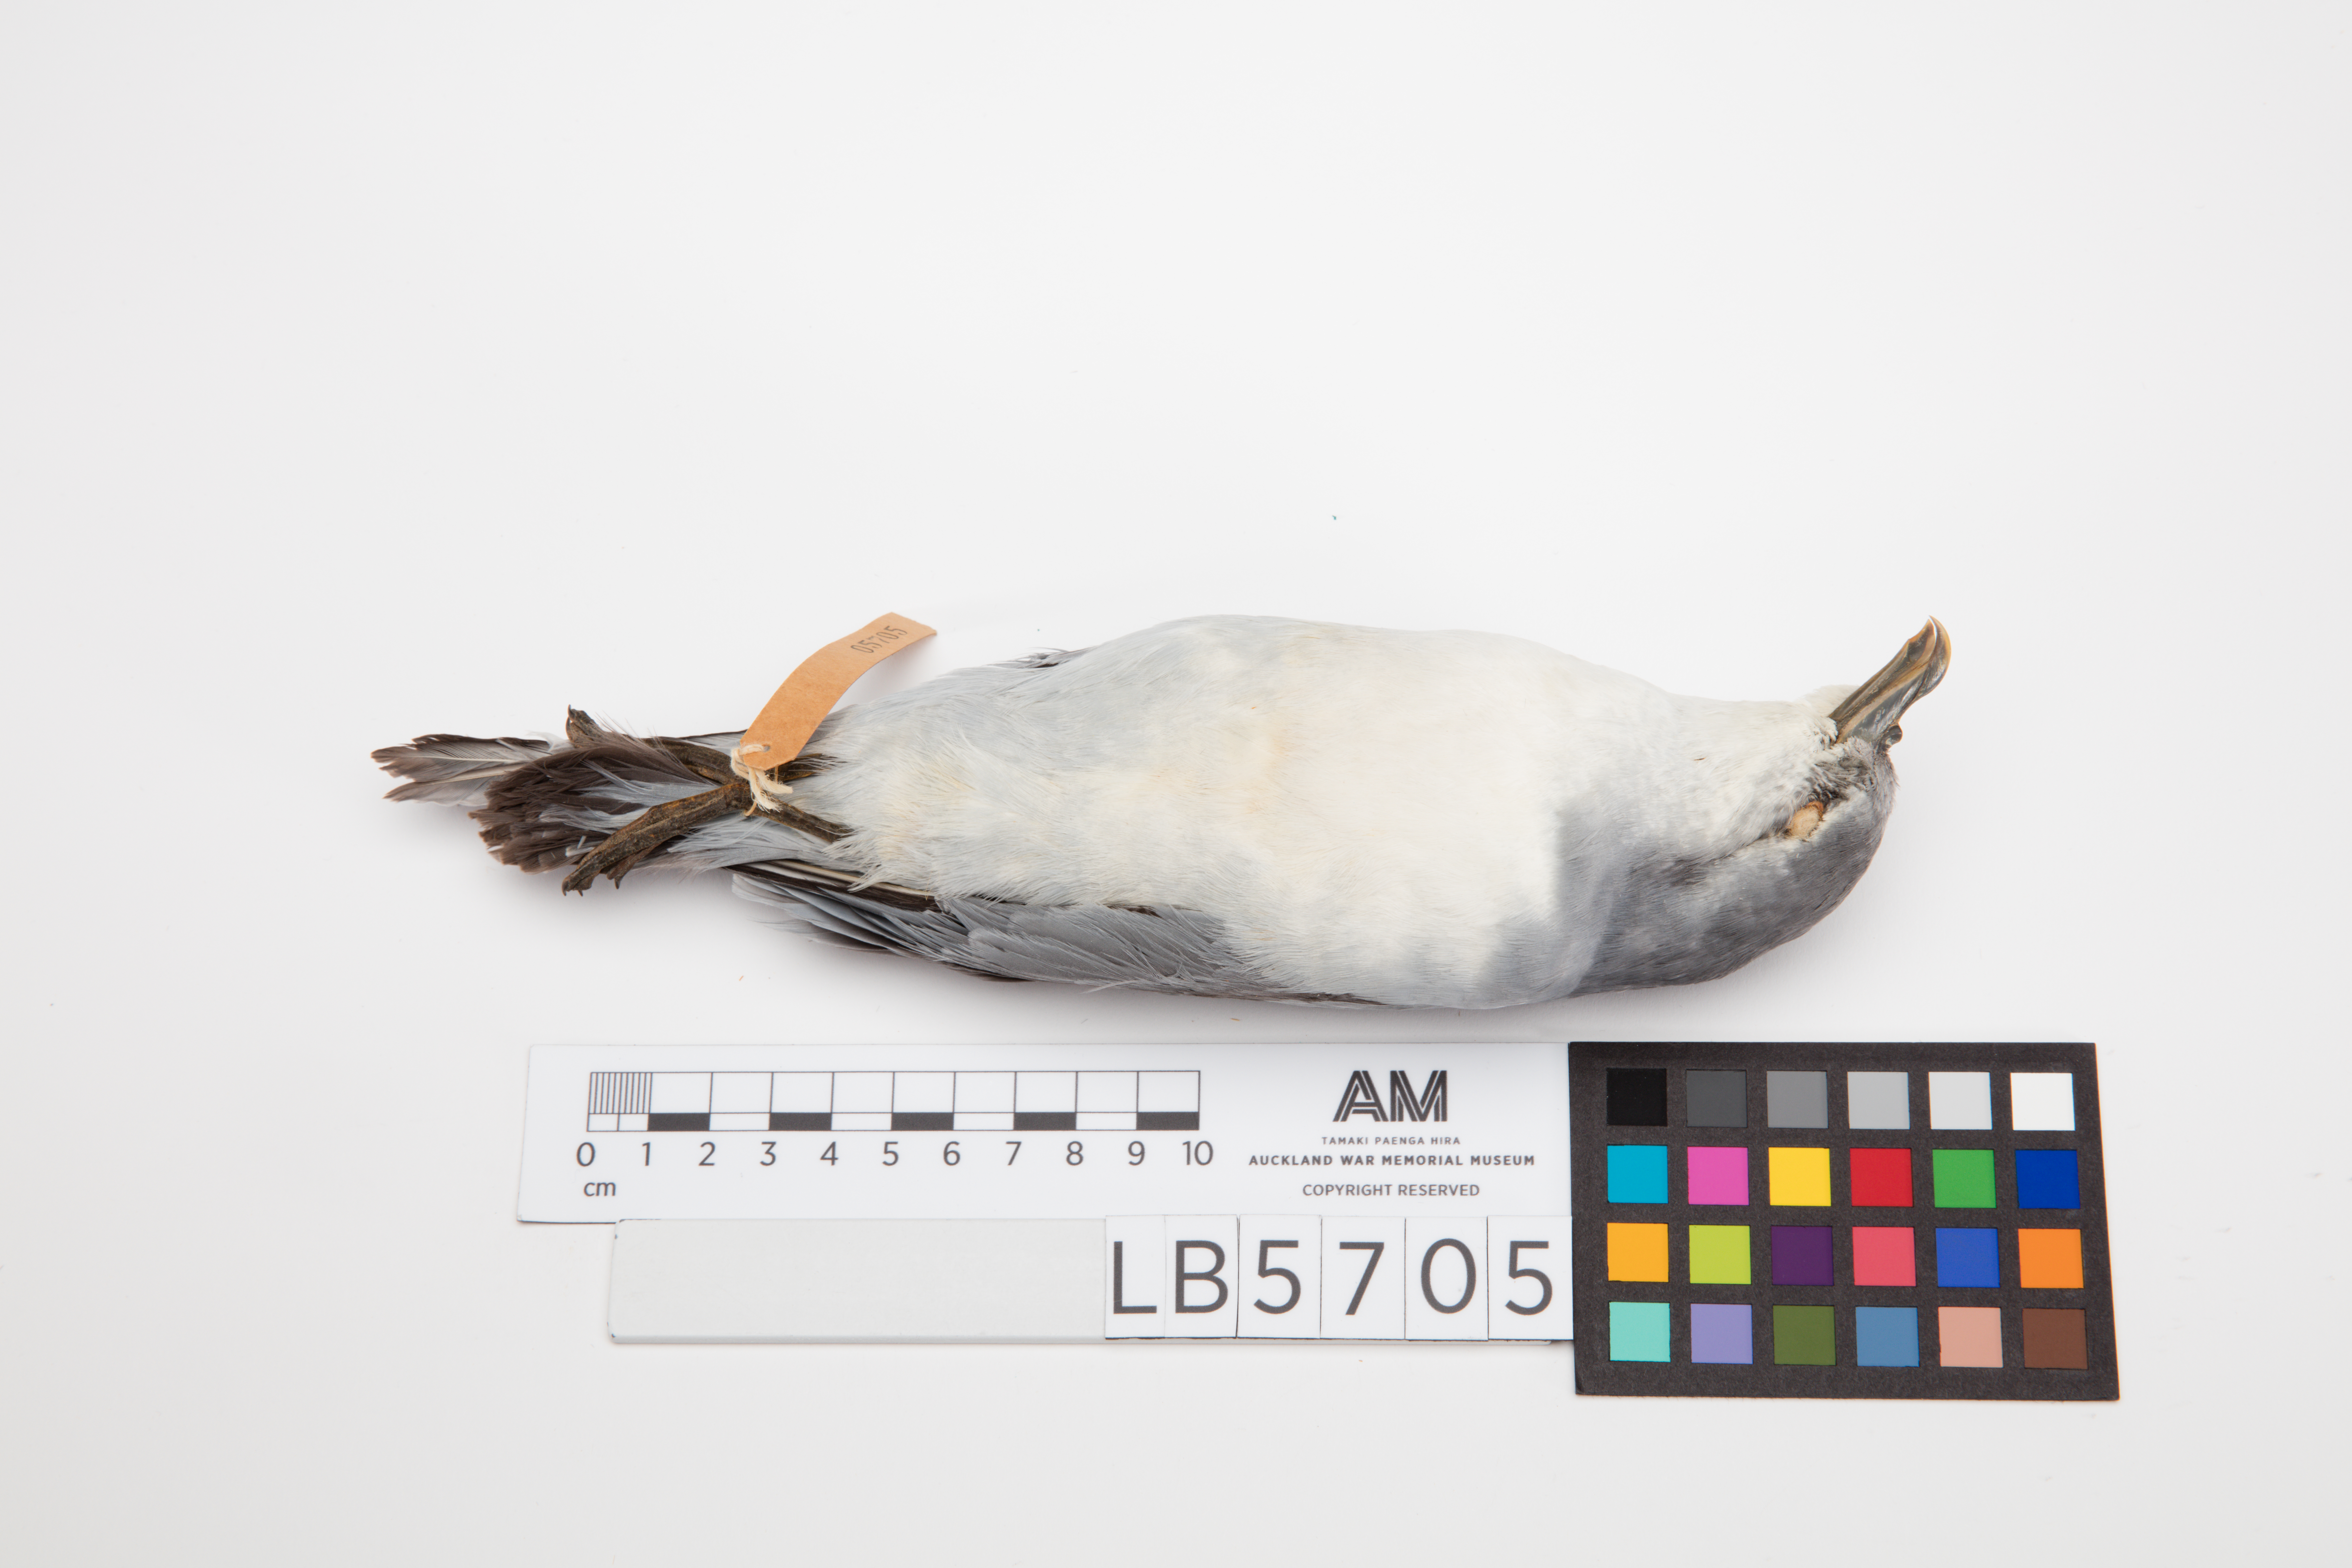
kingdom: Animalia
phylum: Chordata
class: Aves
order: Procellariiformes
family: Procellariidae
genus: Pachyptila
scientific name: Pachyptila turtur
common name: Fairy prion
